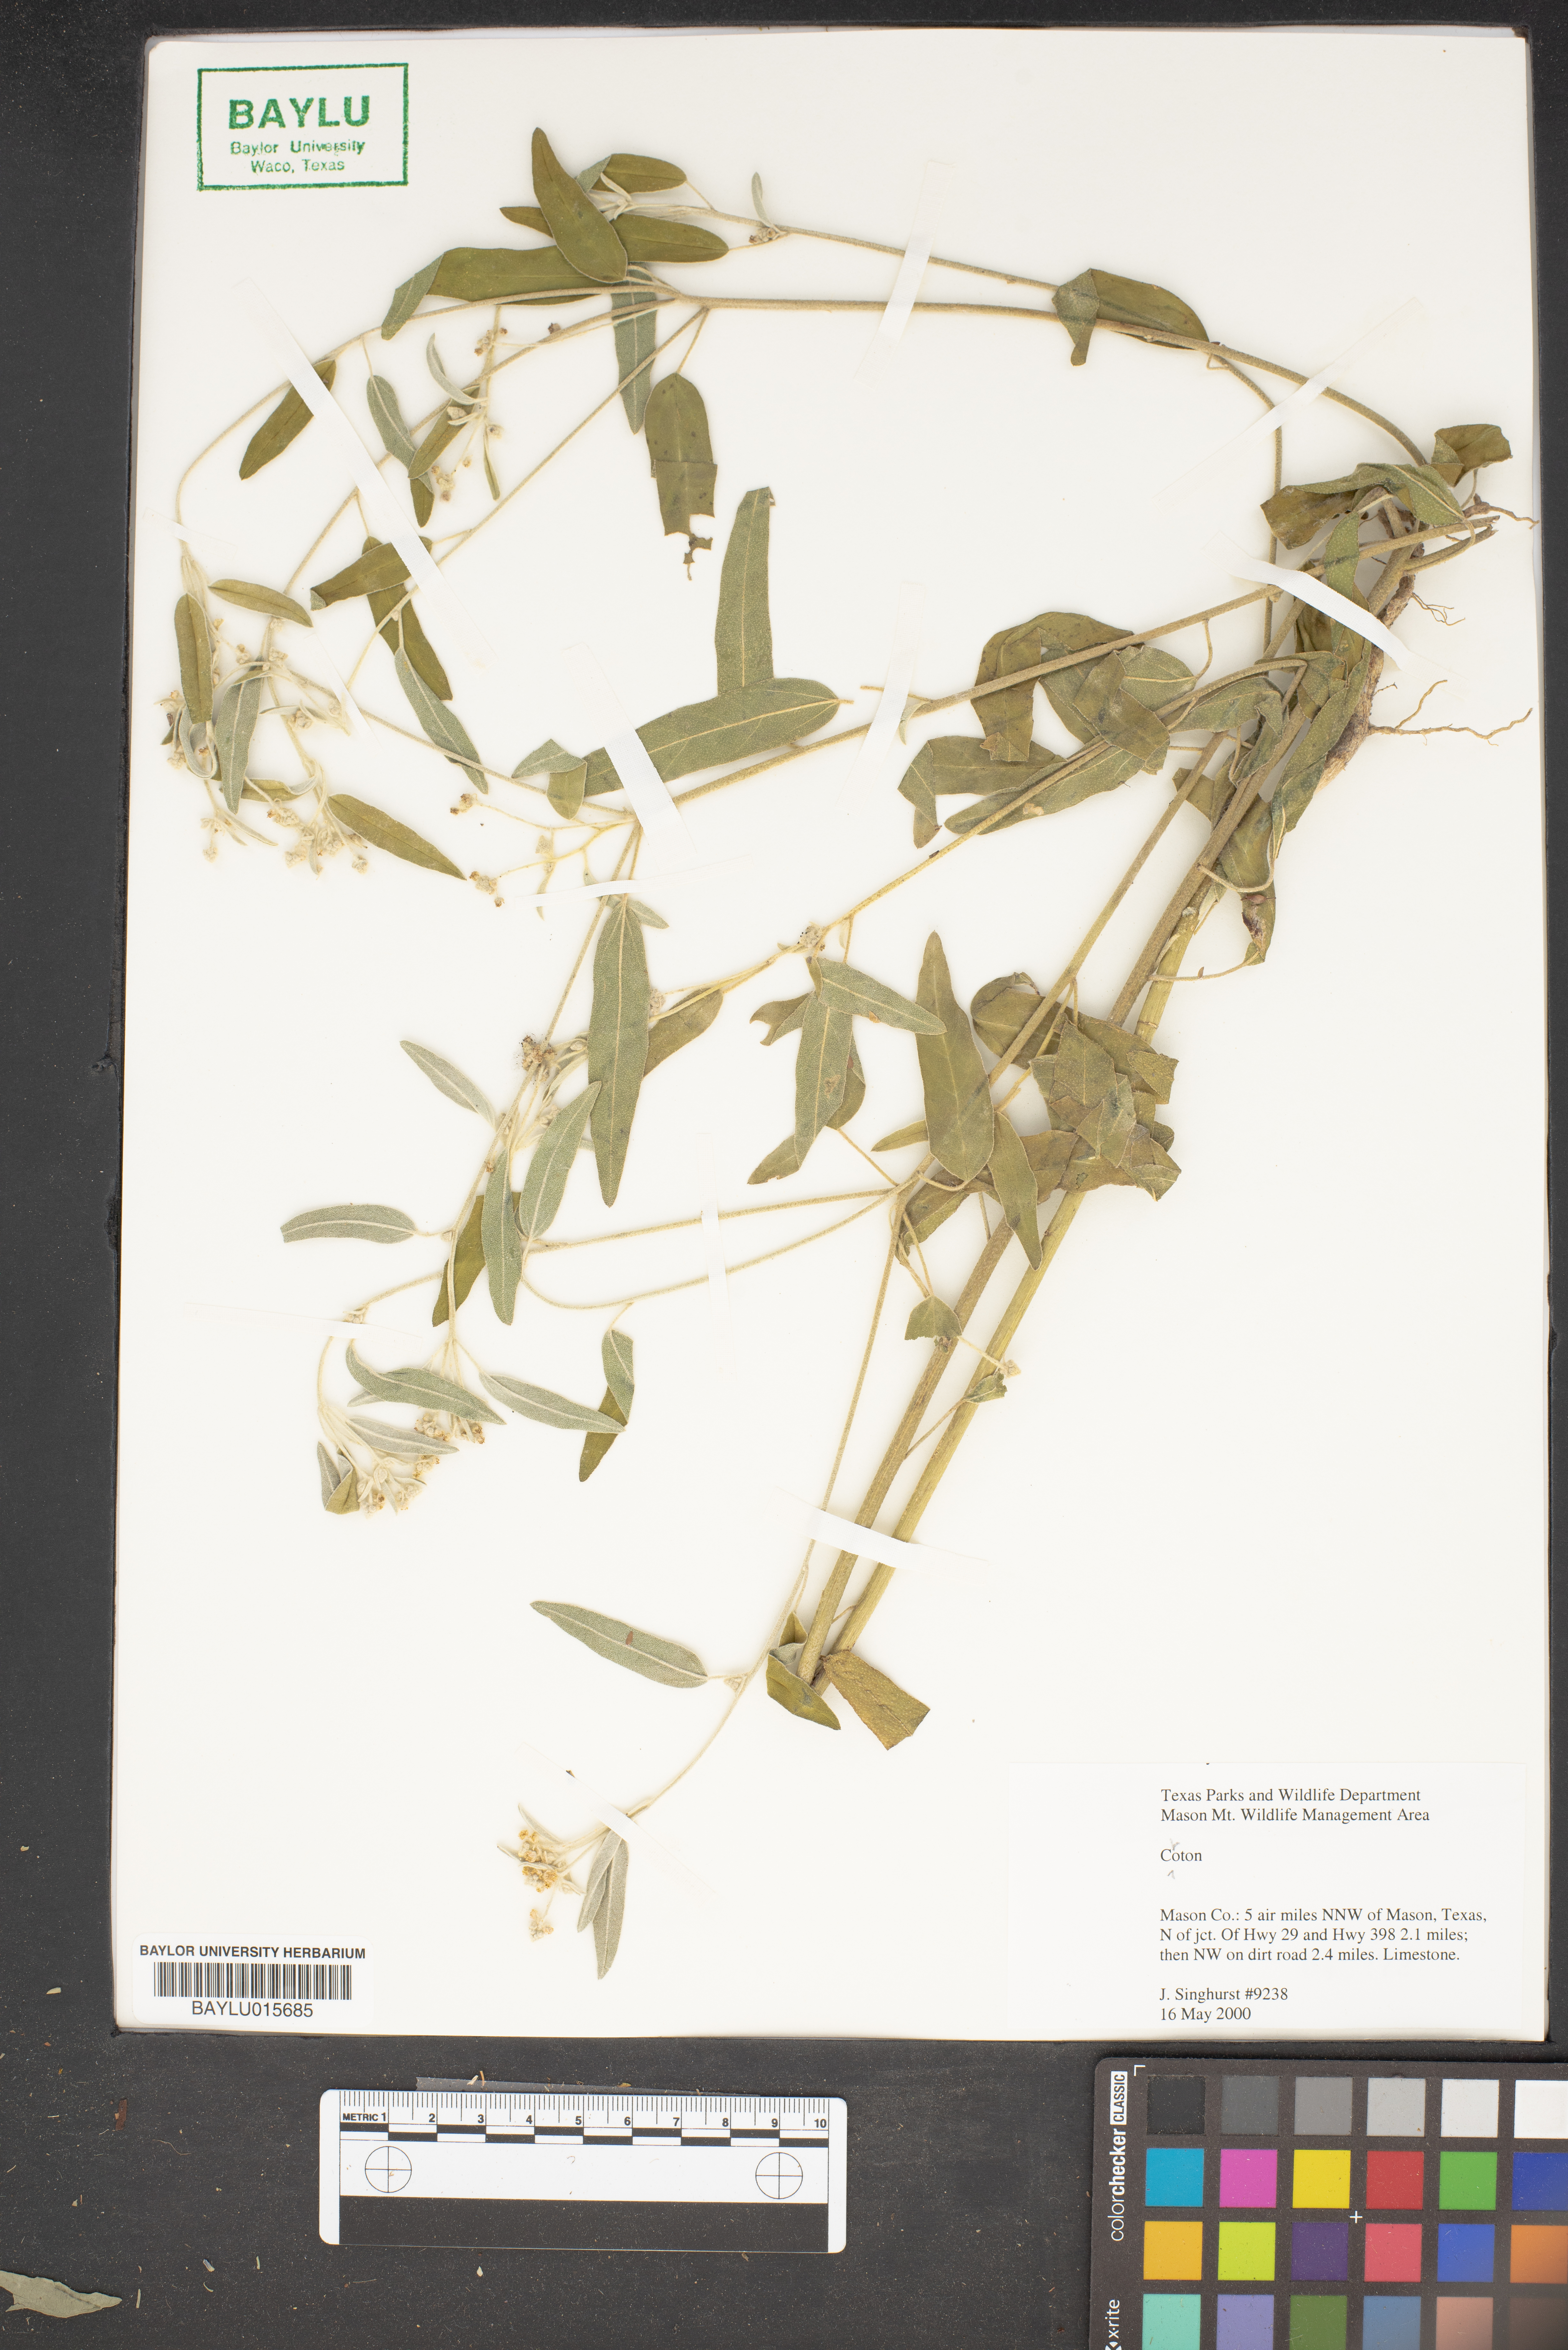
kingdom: Plantae
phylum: Tracheophyta
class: Magnoliopsida
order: Malpighiales
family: Euphorbiaceae
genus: Croton
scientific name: Croton
